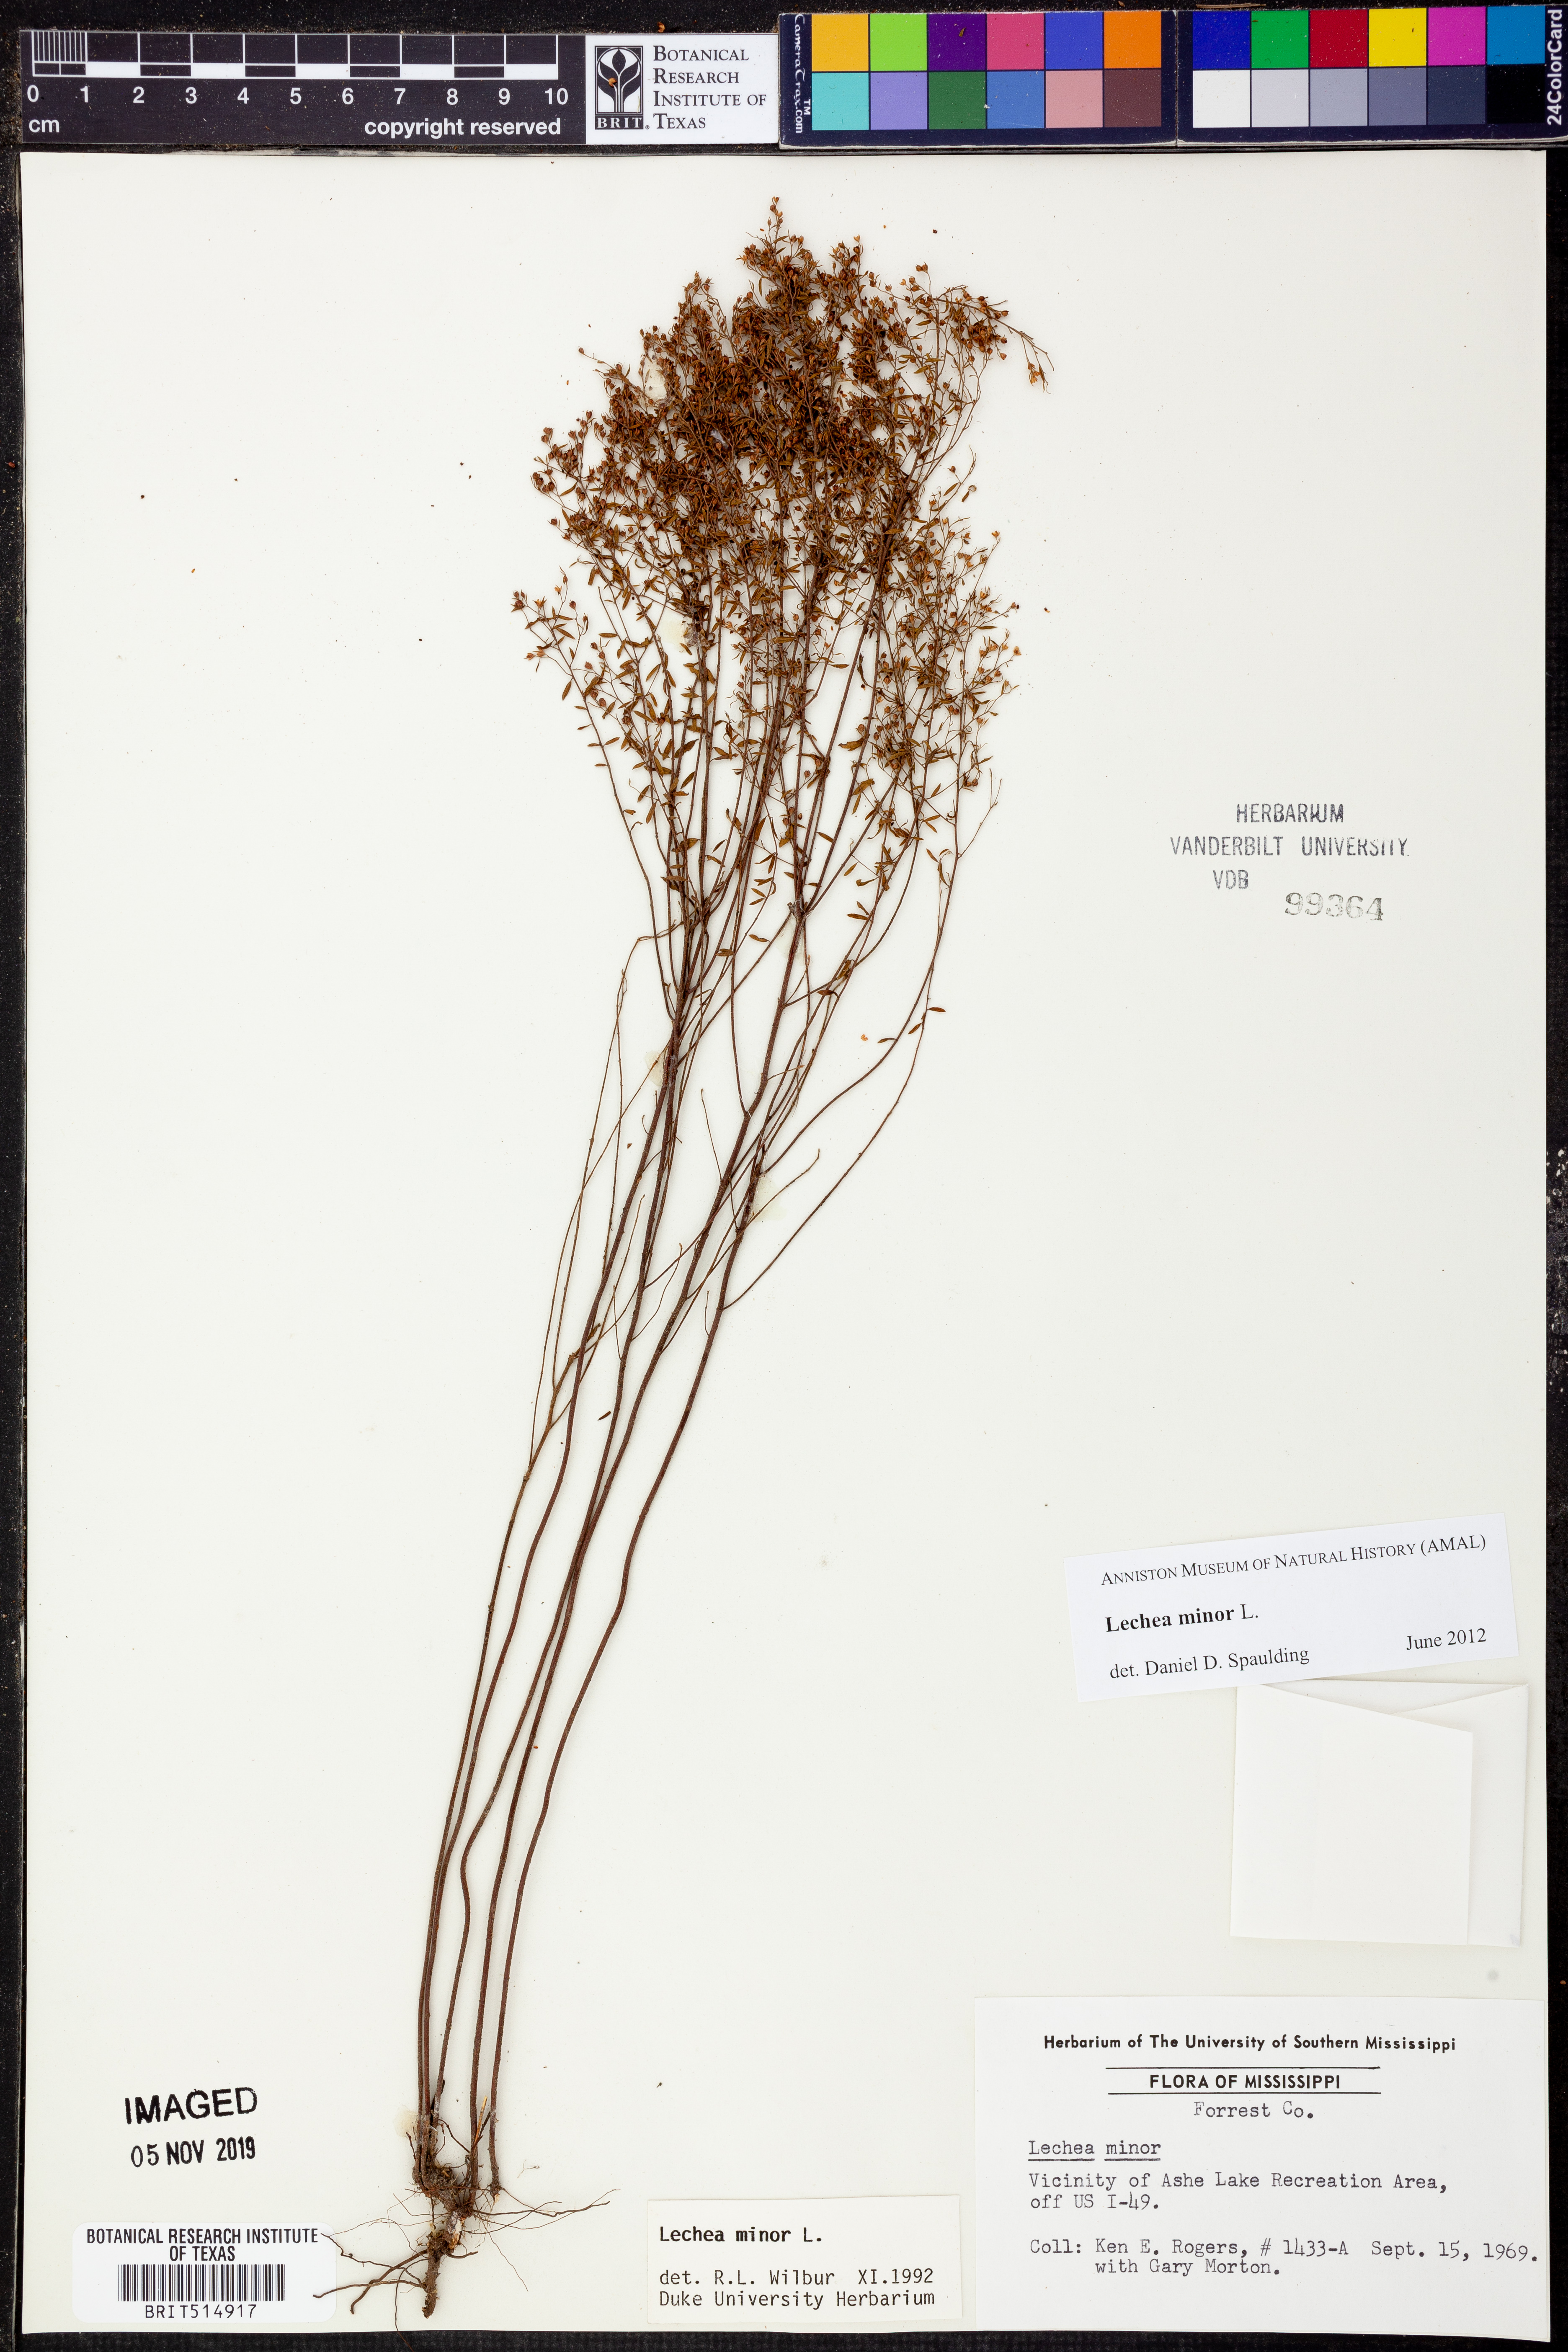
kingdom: Plantae
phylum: Tracheophyta
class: Magnoliopsida
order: Malvales
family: Cistaceae
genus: Lechea
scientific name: Lechea minor
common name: Thyme-leaf pinweed
